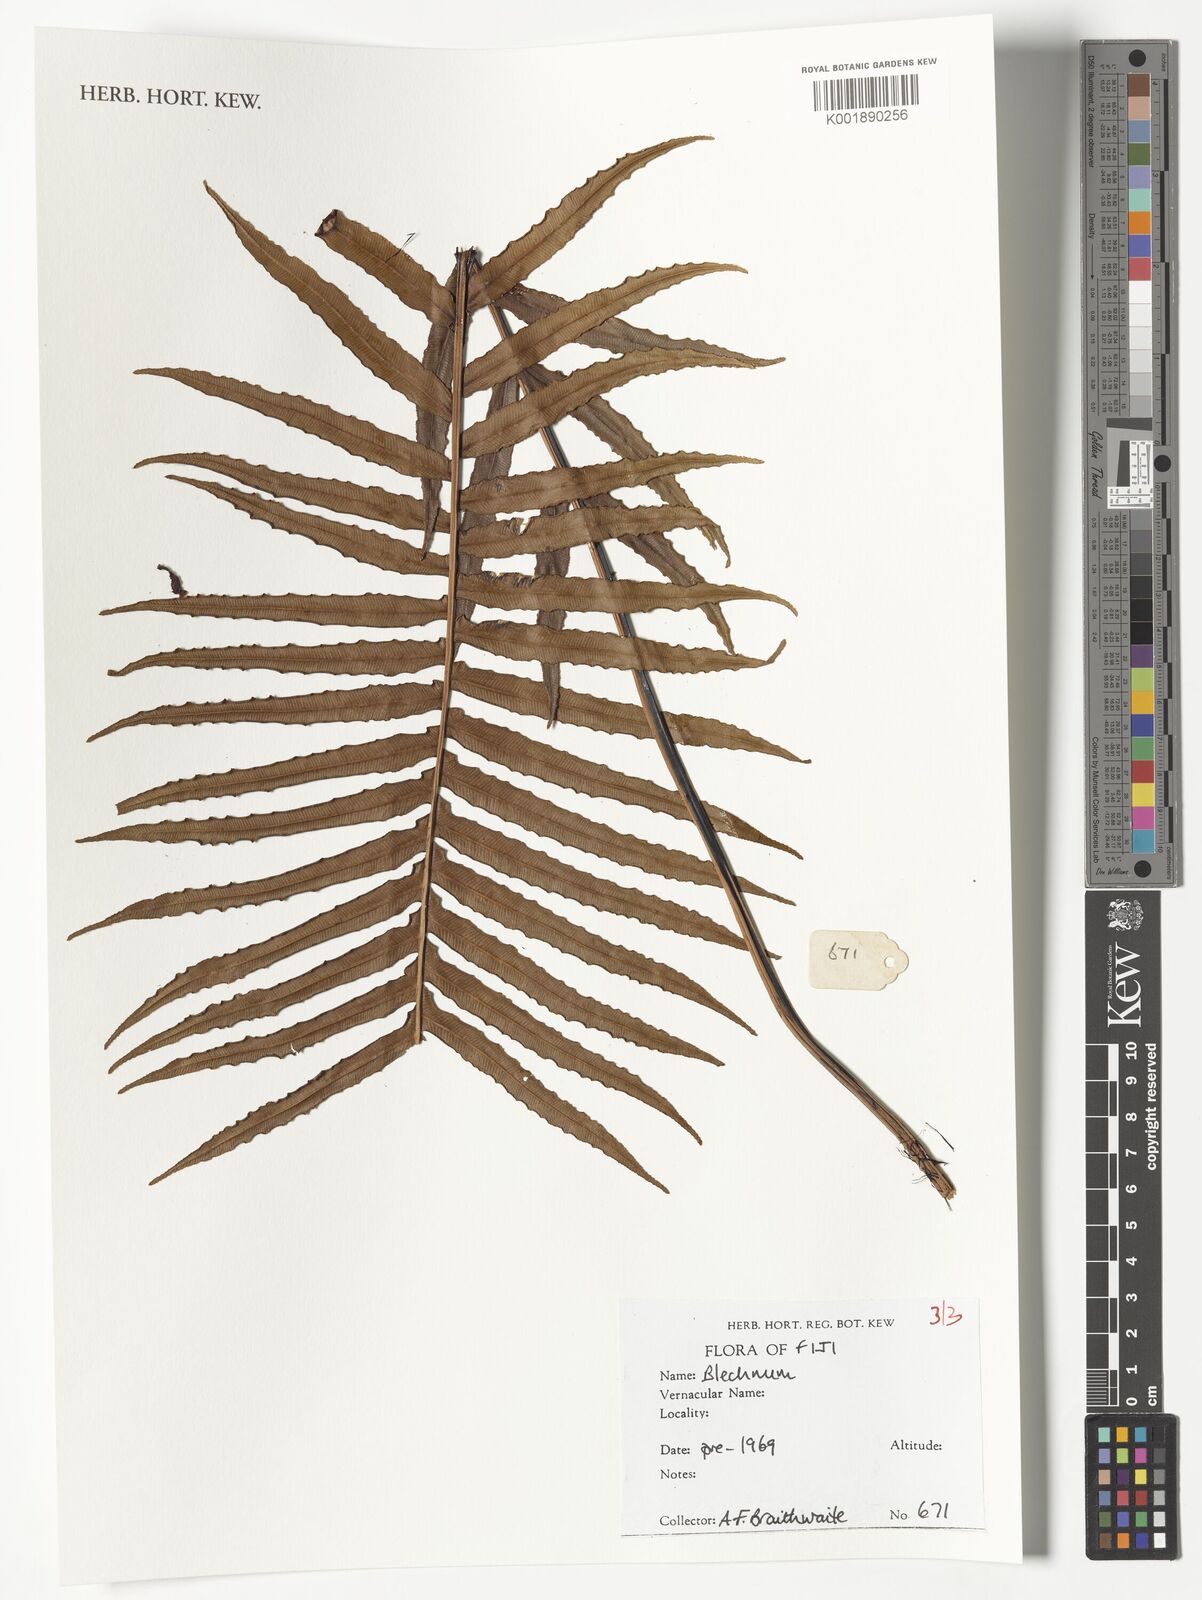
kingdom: Plantae
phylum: Tracheophyta
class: Polypodiopsida
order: Polypodiales
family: Blechnaceae
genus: Blechnum
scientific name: Blechnum
